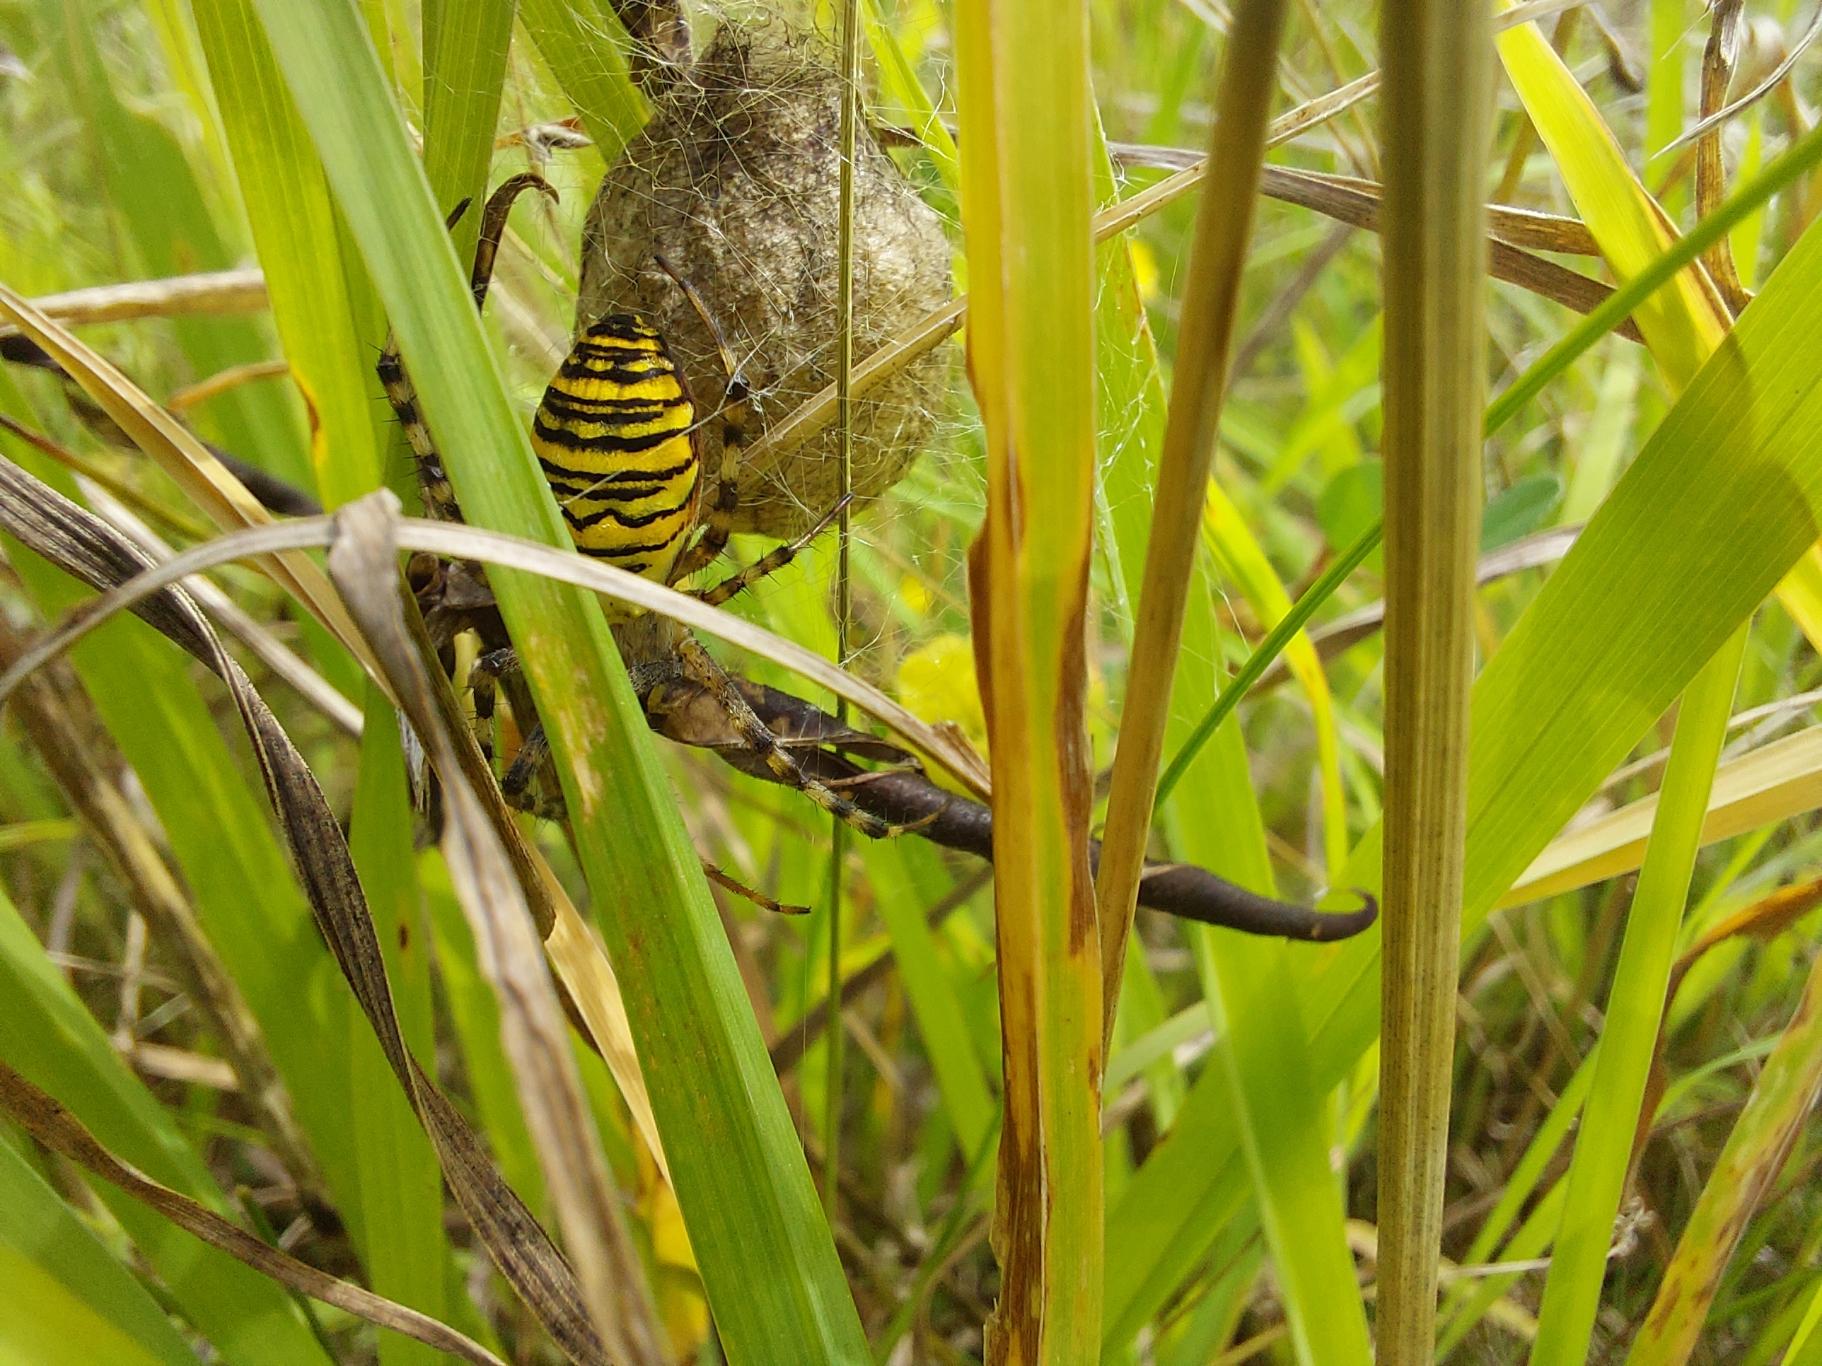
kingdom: Animalia
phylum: Arthropoda
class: Arachnida
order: Araneae
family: Araneidae
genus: Argiope
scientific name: Argiope bruennichi
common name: Hvepseedderkop
